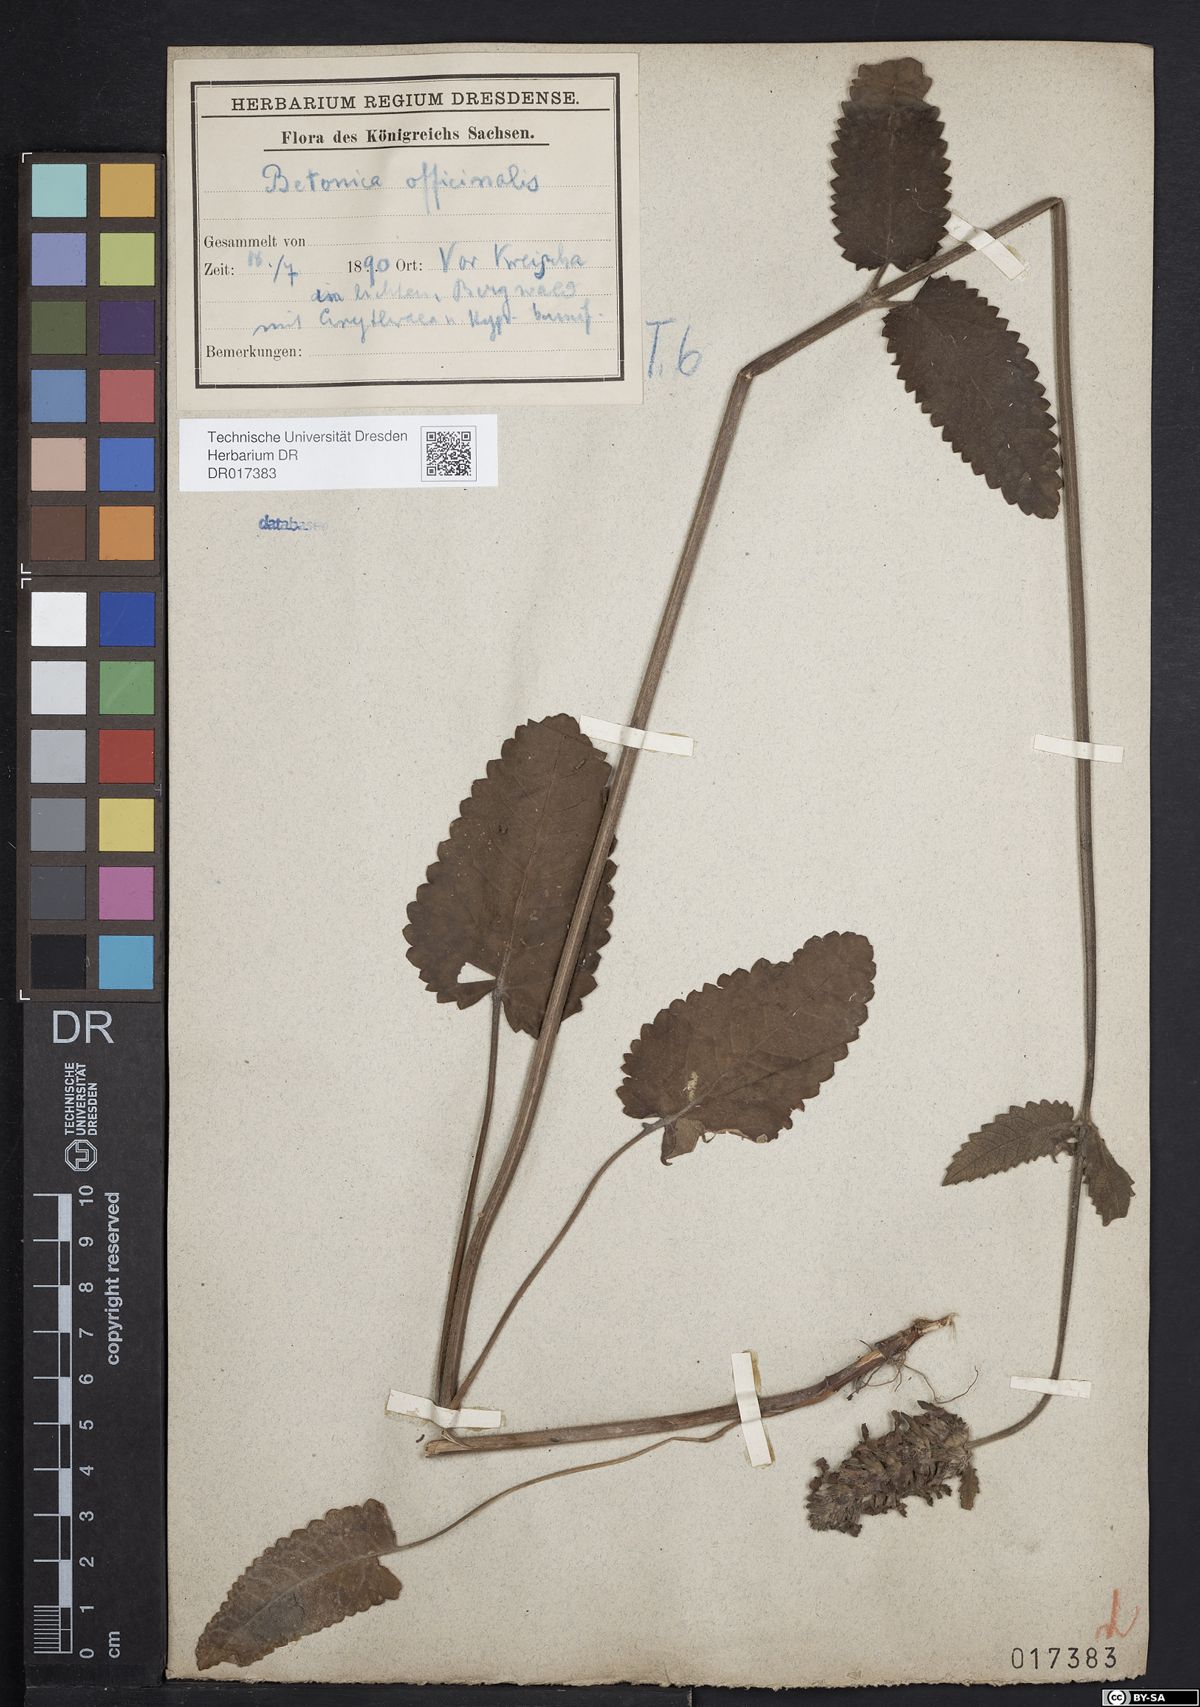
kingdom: Plantae
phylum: Tracheophyta
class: Magnoliopsida
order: Lamiales
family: Lamiaceae
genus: Betonica
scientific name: Betonica officinalis
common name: Bishop's-wort
